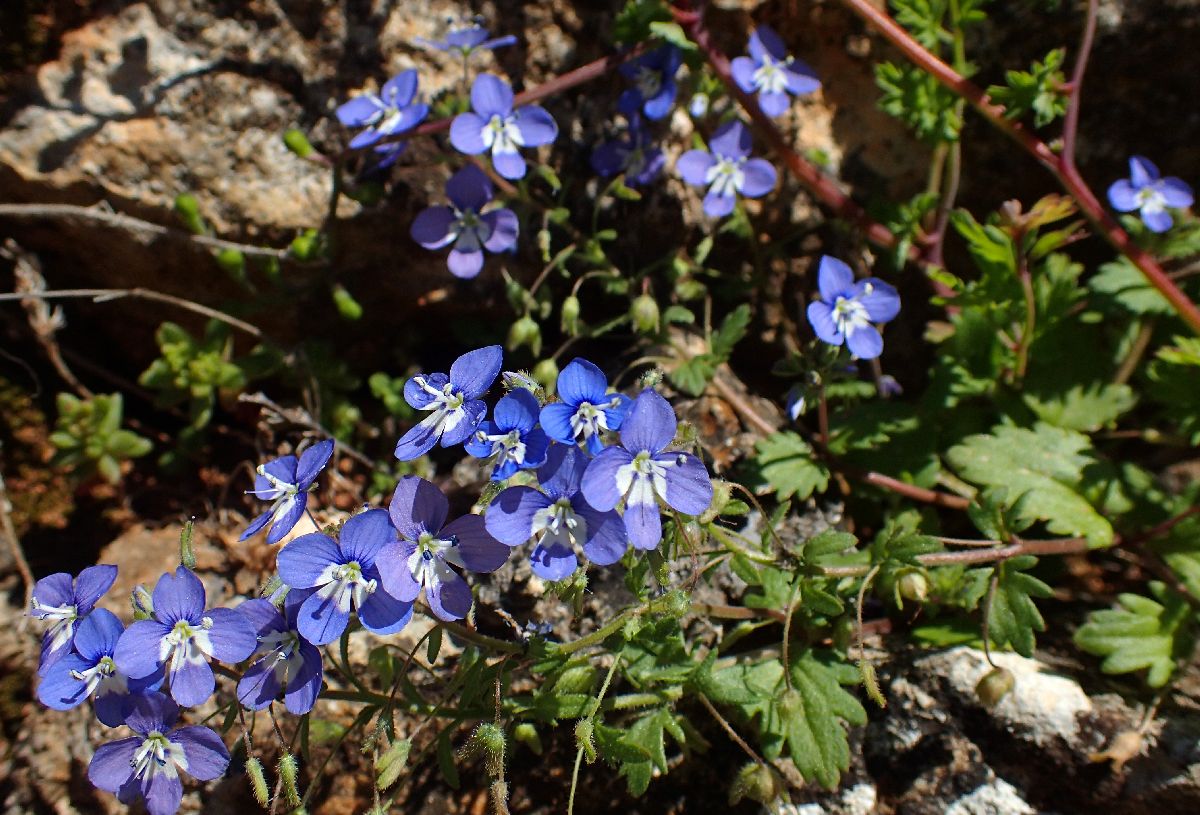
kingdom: Plantae
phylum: Tracheophyta
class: Magnoliopsida
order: Lamiales
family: Plantaginaceae
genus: Veronica
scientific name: Veronica glauca
